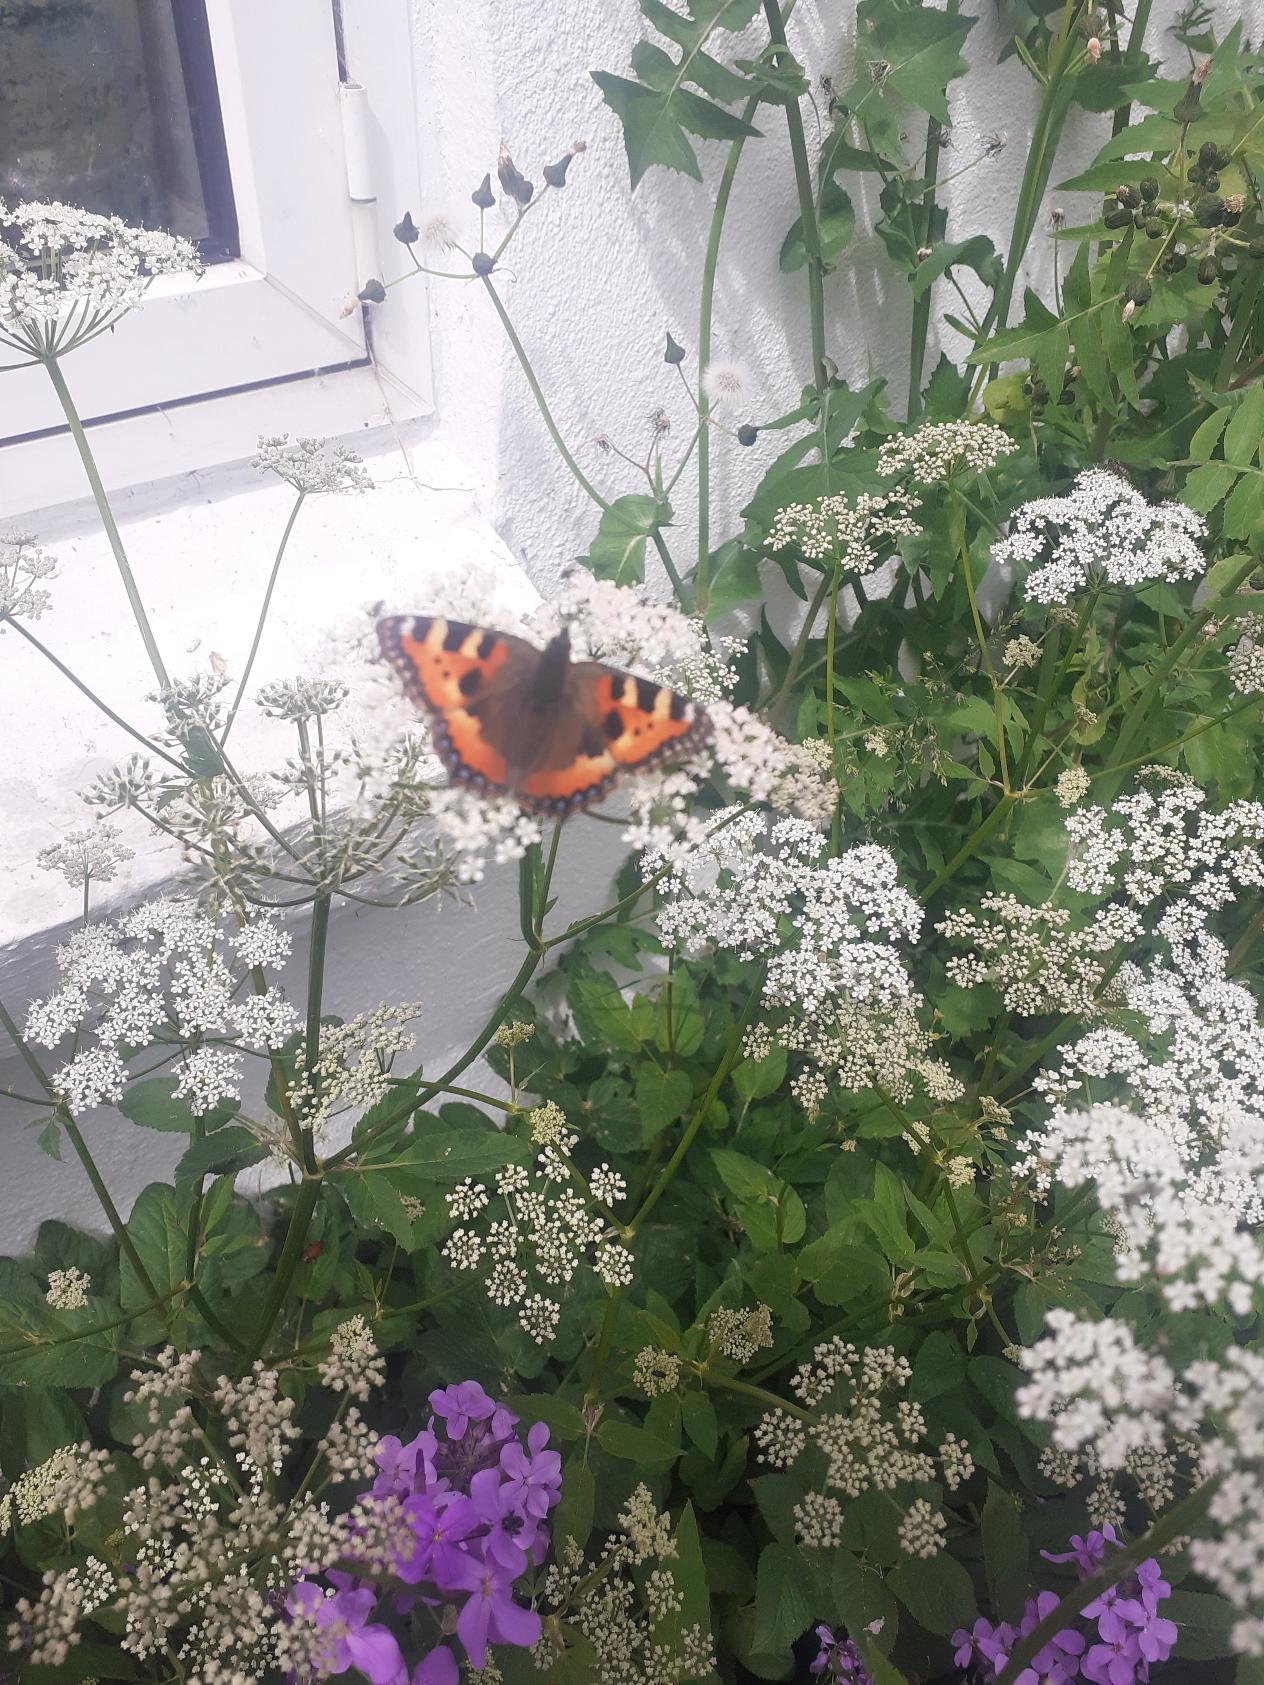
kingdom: Animalia
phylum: Arthropoda
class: Insecta
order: Lepidoptera
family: Nymphalidae
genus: Aglais
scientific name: Aglais urticae
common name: Nældens takvinge
